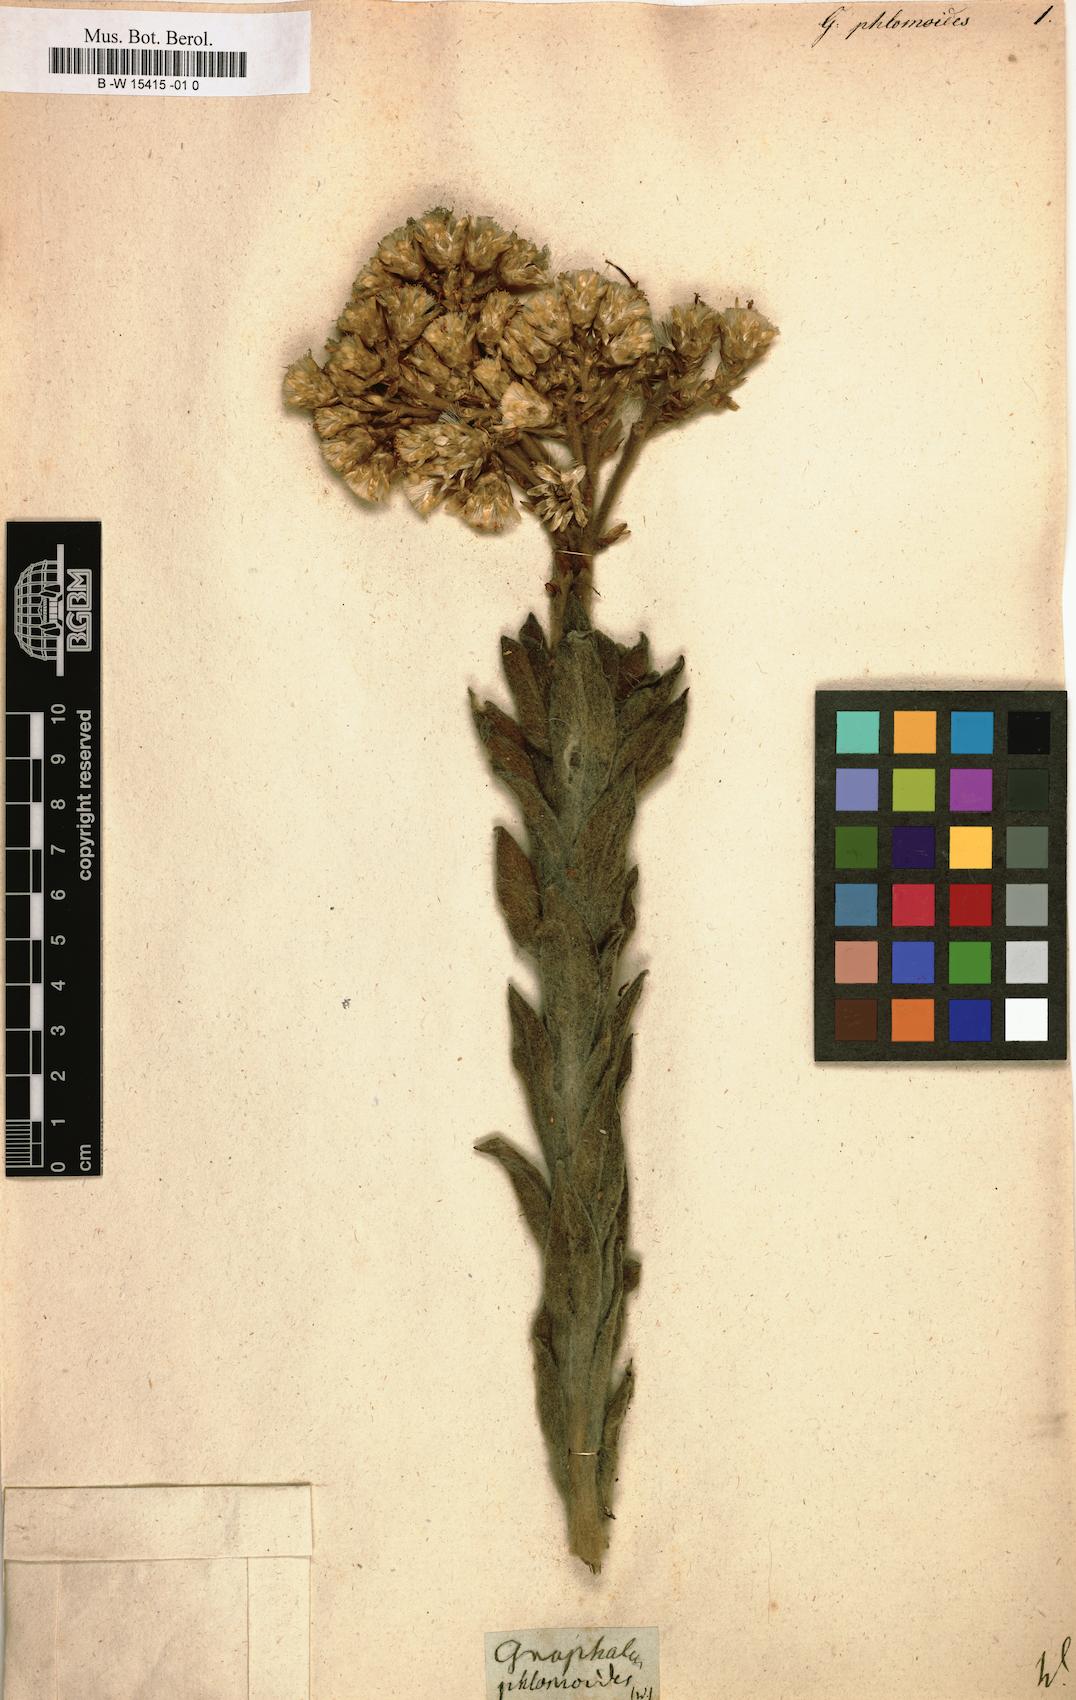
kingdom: Plantae
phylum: Tracheophyta
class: Magnoliopsida
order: Asterales
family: Asteraceae
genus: Syncarpha
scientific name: Syncarpha milleflora
